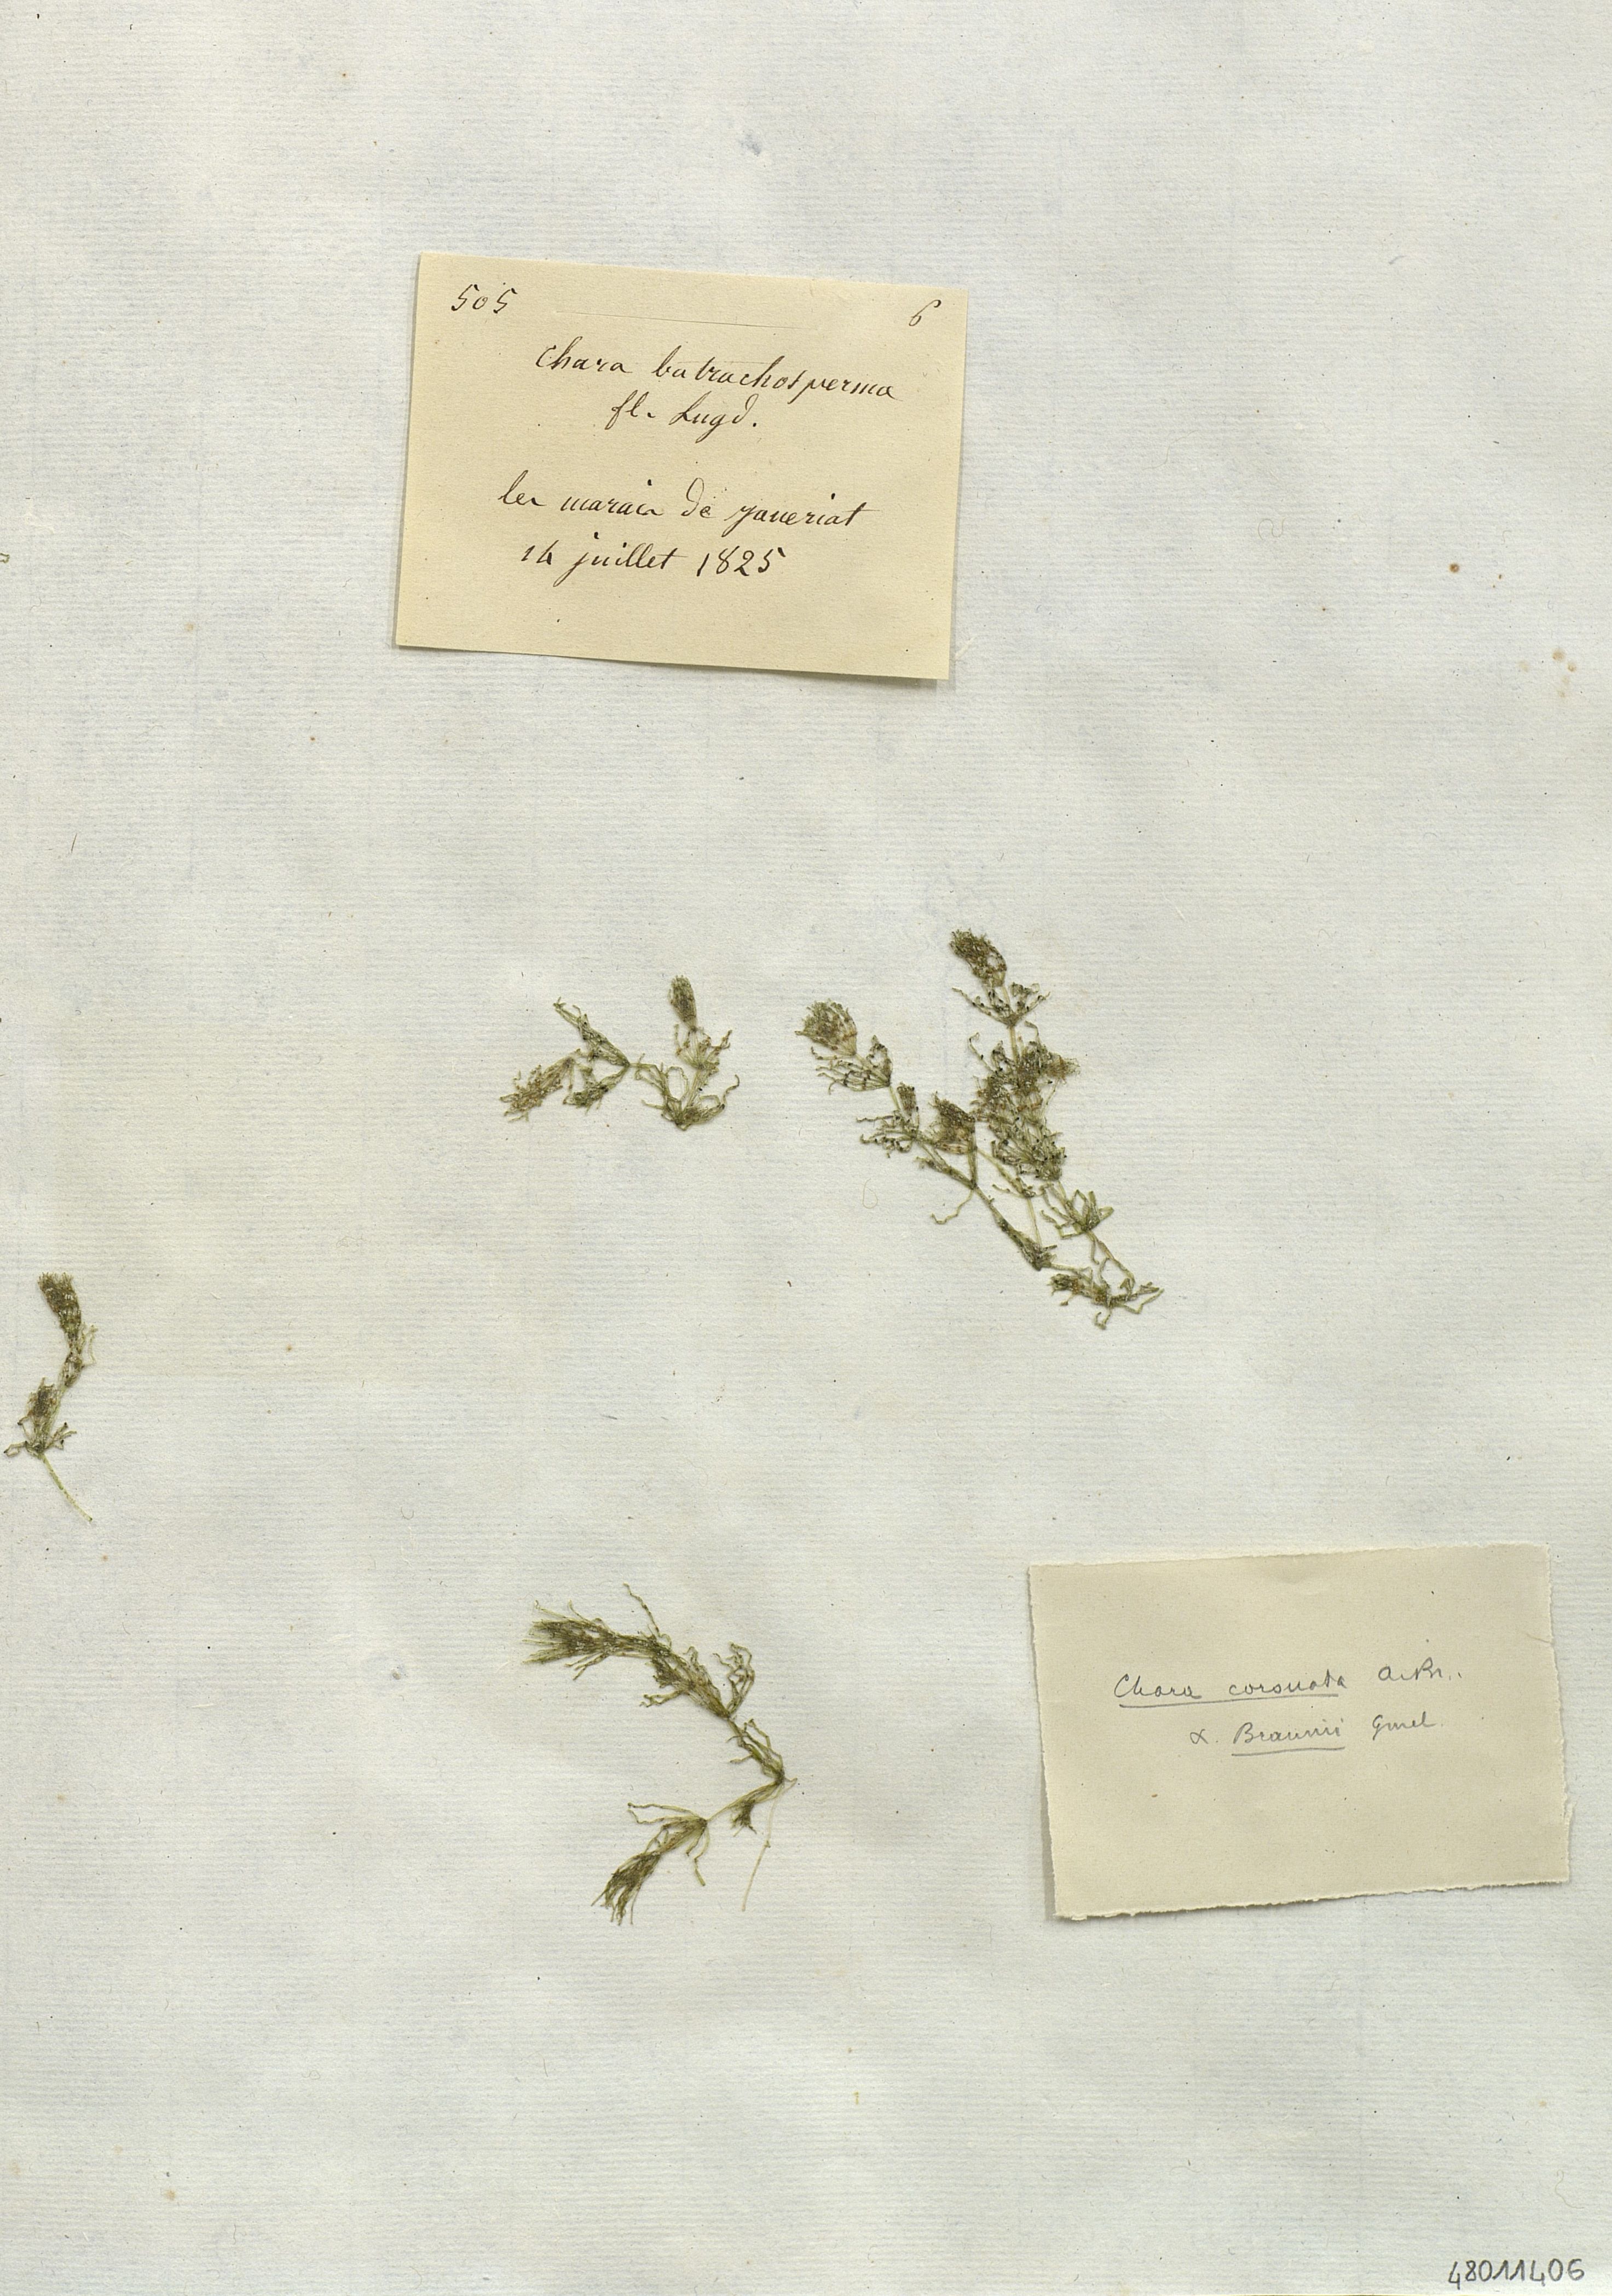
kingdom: Plantae
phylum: Charophyta
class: Charophyceae
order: Charales
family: Characeae
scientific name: Characeae
